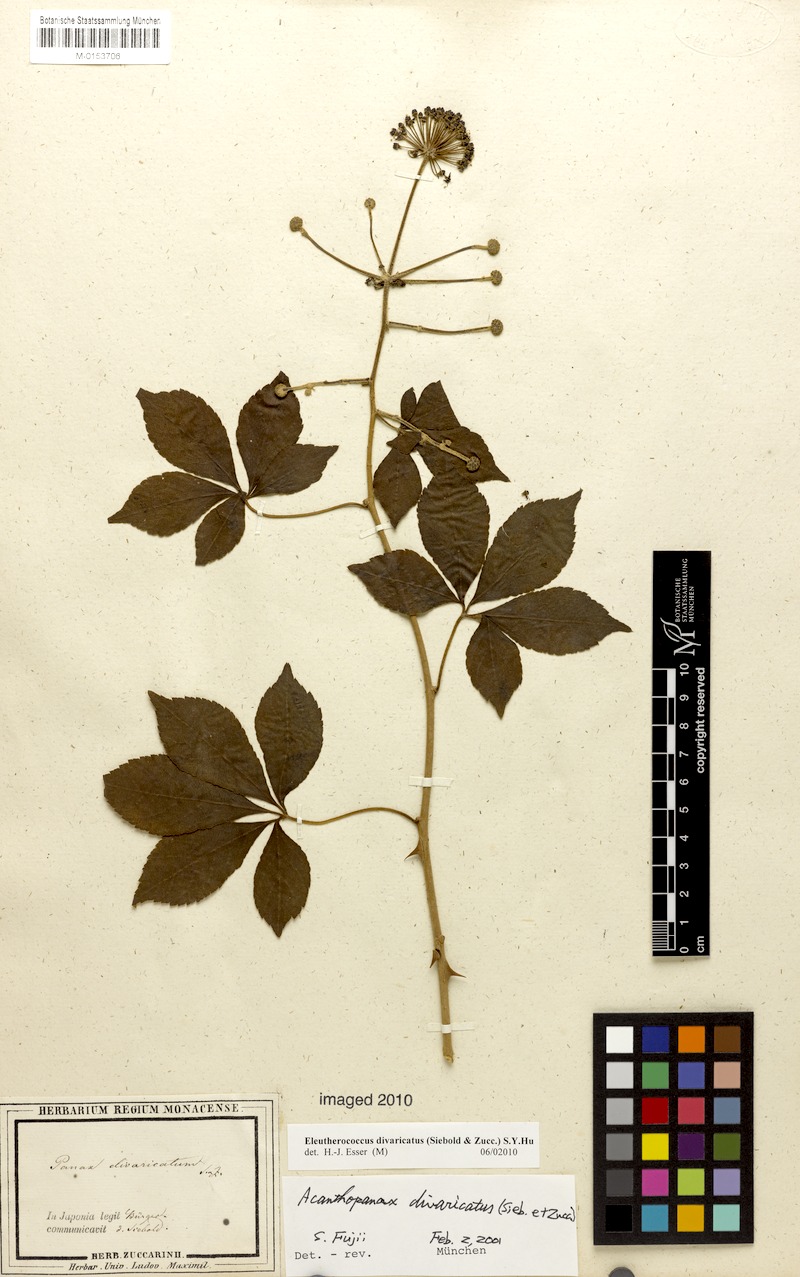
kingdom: Plantae
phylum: Tracheophyta
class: Magnoliopsida
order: Apiales
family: Araliaceae
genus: Eleutherococcus
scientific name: Eleutherococcus divaricatus
